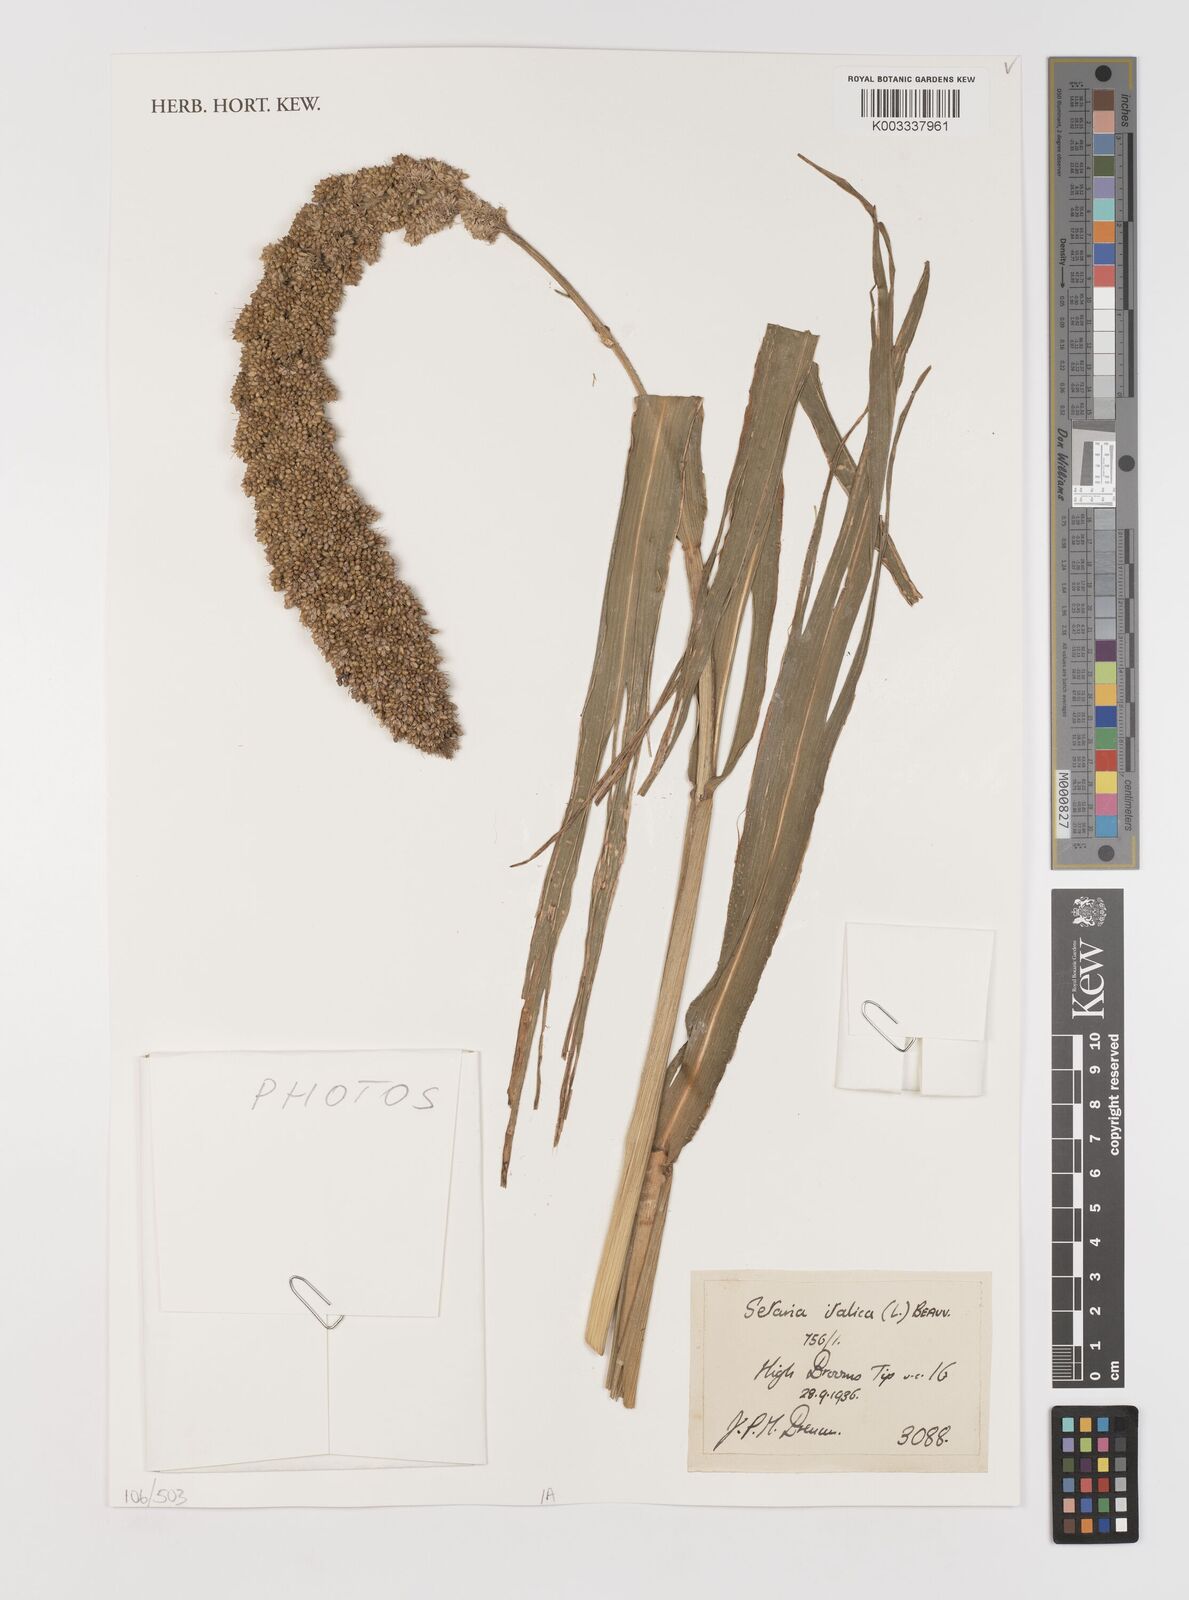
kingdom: Plantae
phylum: Tracheophyta
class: Liliopsida
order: Poales
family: Poaceae
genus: Setaria
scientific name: Setaria italica
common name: Foxtail bristle-grass
